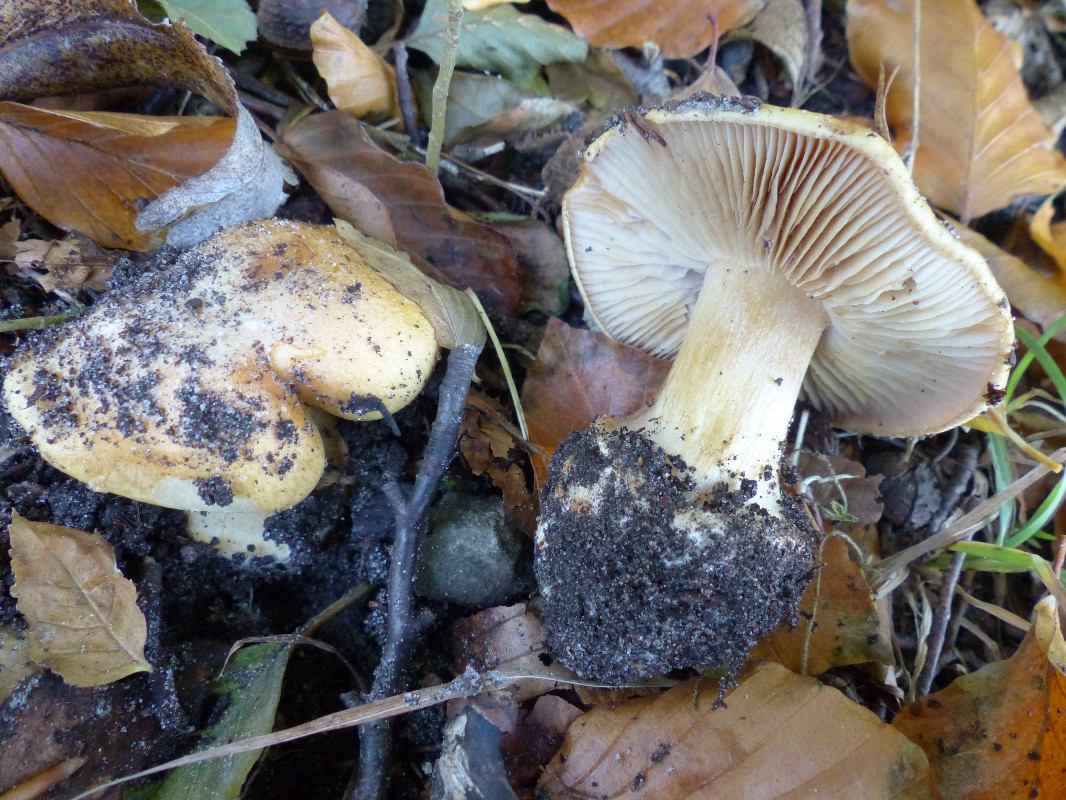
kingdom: Fungi
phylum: Basidiomycota
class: Agaricomycetes
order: Agaricales
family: Cortinariaceae
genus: Phlegmacium
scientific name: Phlegmacium xantho-ochraceum
